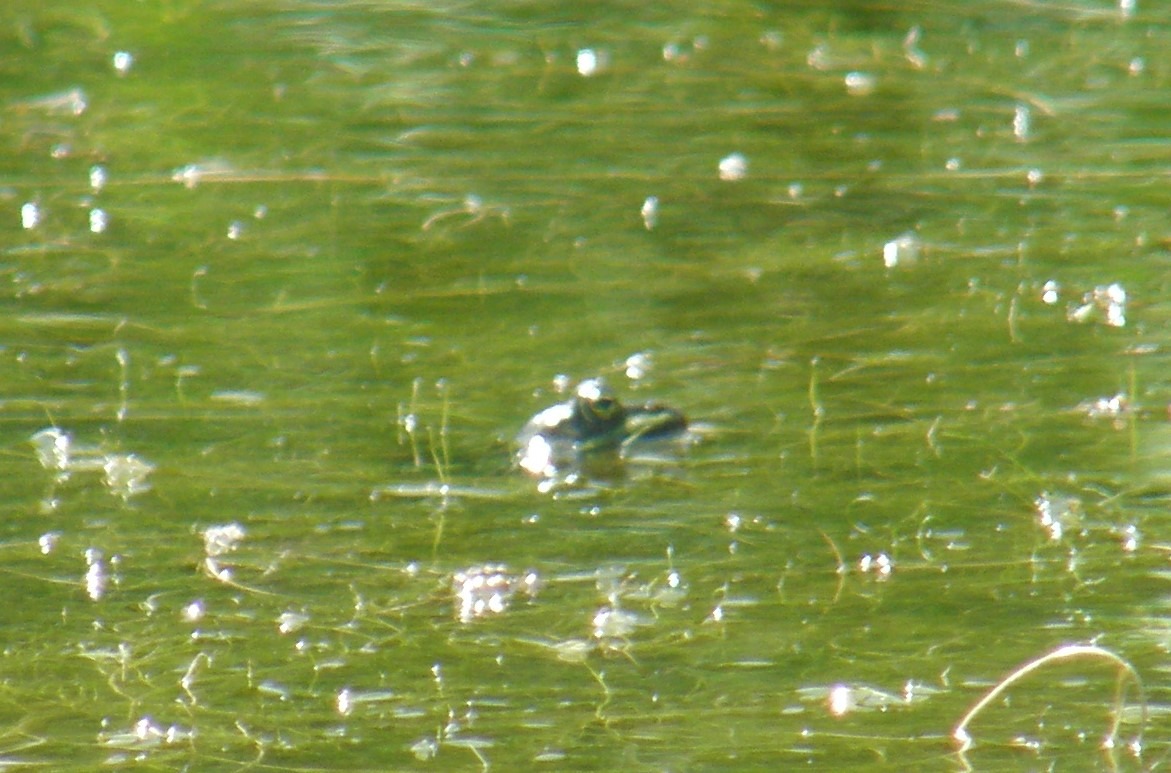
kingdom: Animalia
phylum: Chordata
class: Amphibia
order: Anura
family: Ranidae
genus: Pelophylax
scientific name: Pelophylax lessonae
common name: Grøn frø
